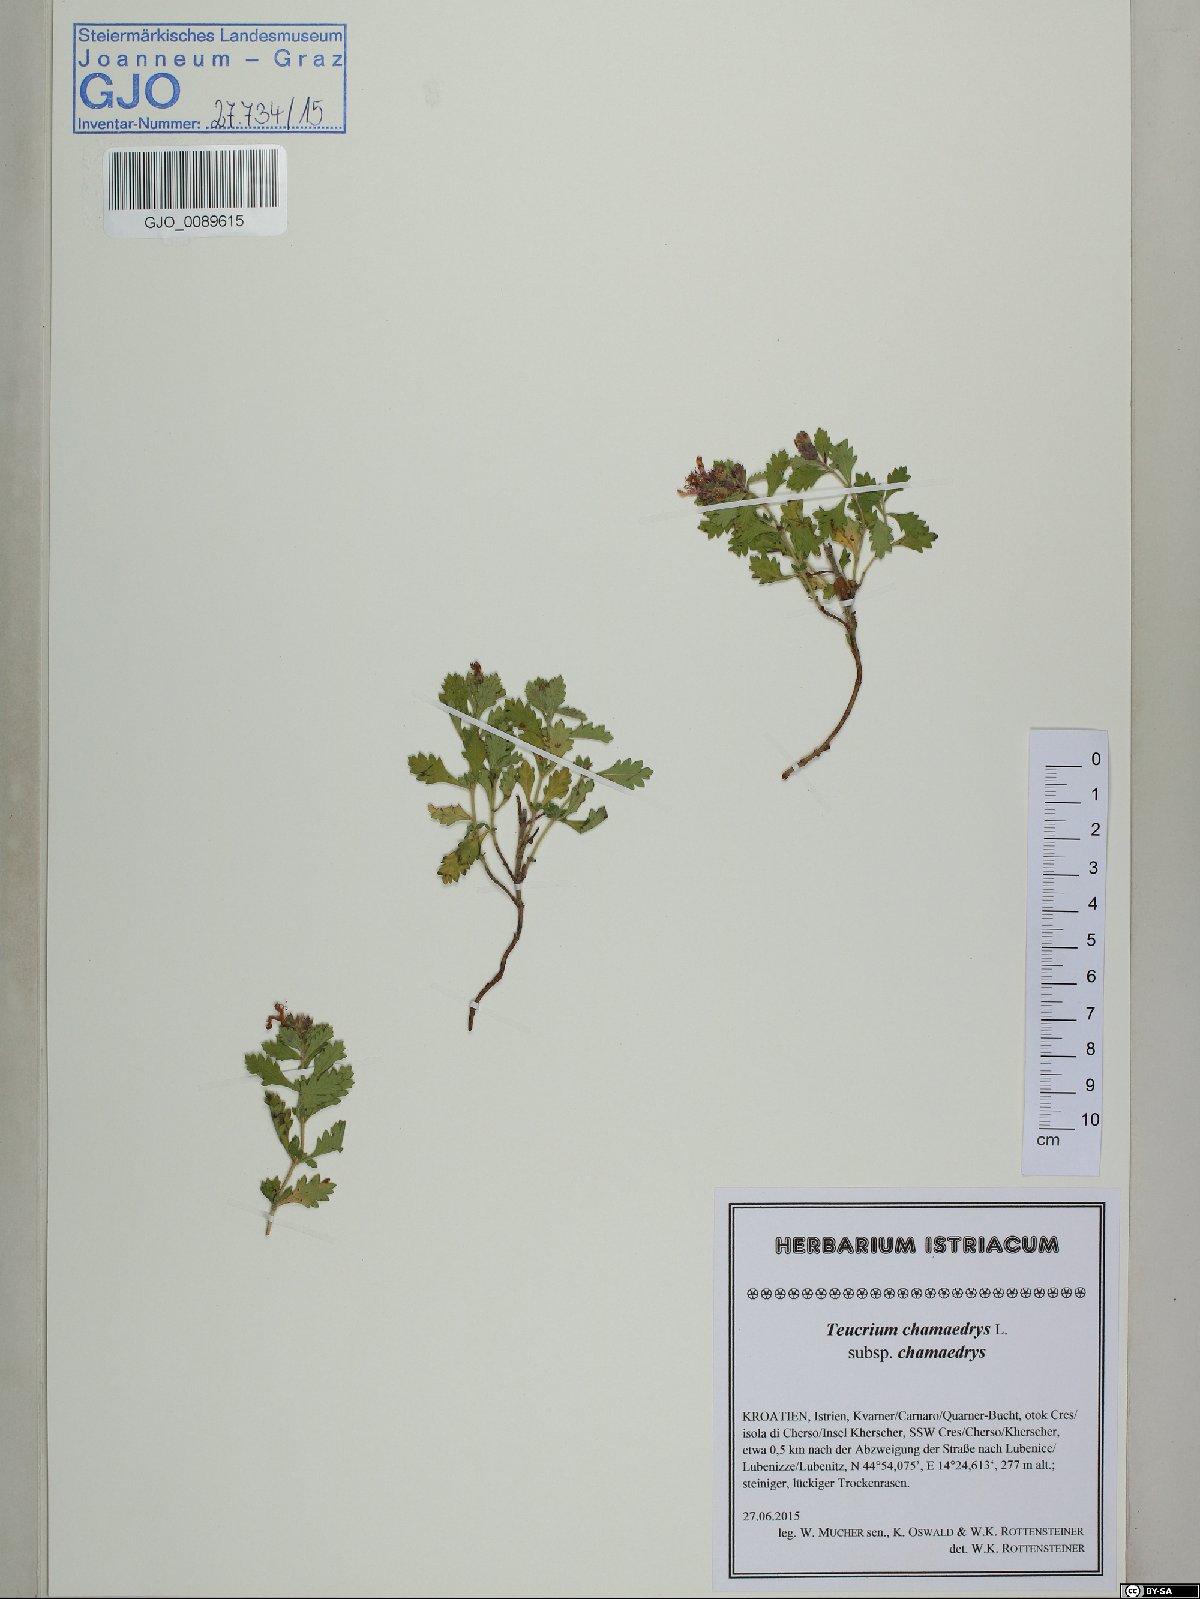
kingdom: Plantae
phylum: Tracheophyta
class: Magnoliopsida
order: Lamiales
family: Lamiaceae
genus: Teucrium
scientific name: Teucrium chamaedrys
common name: Wall germander
